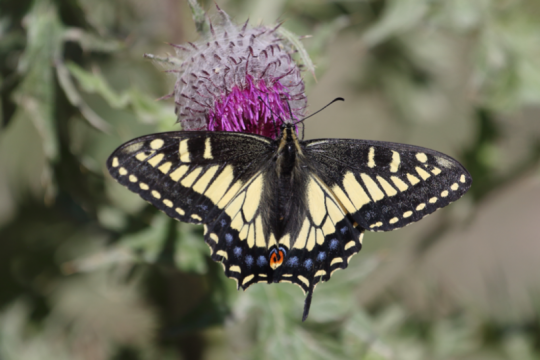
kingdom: Animalia
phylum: Arthropoda
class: Insecta
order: Lepidoptera
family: Papilionidae
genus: Papilio
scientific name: Papilio zelicaon
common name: Anise Swallowtail
